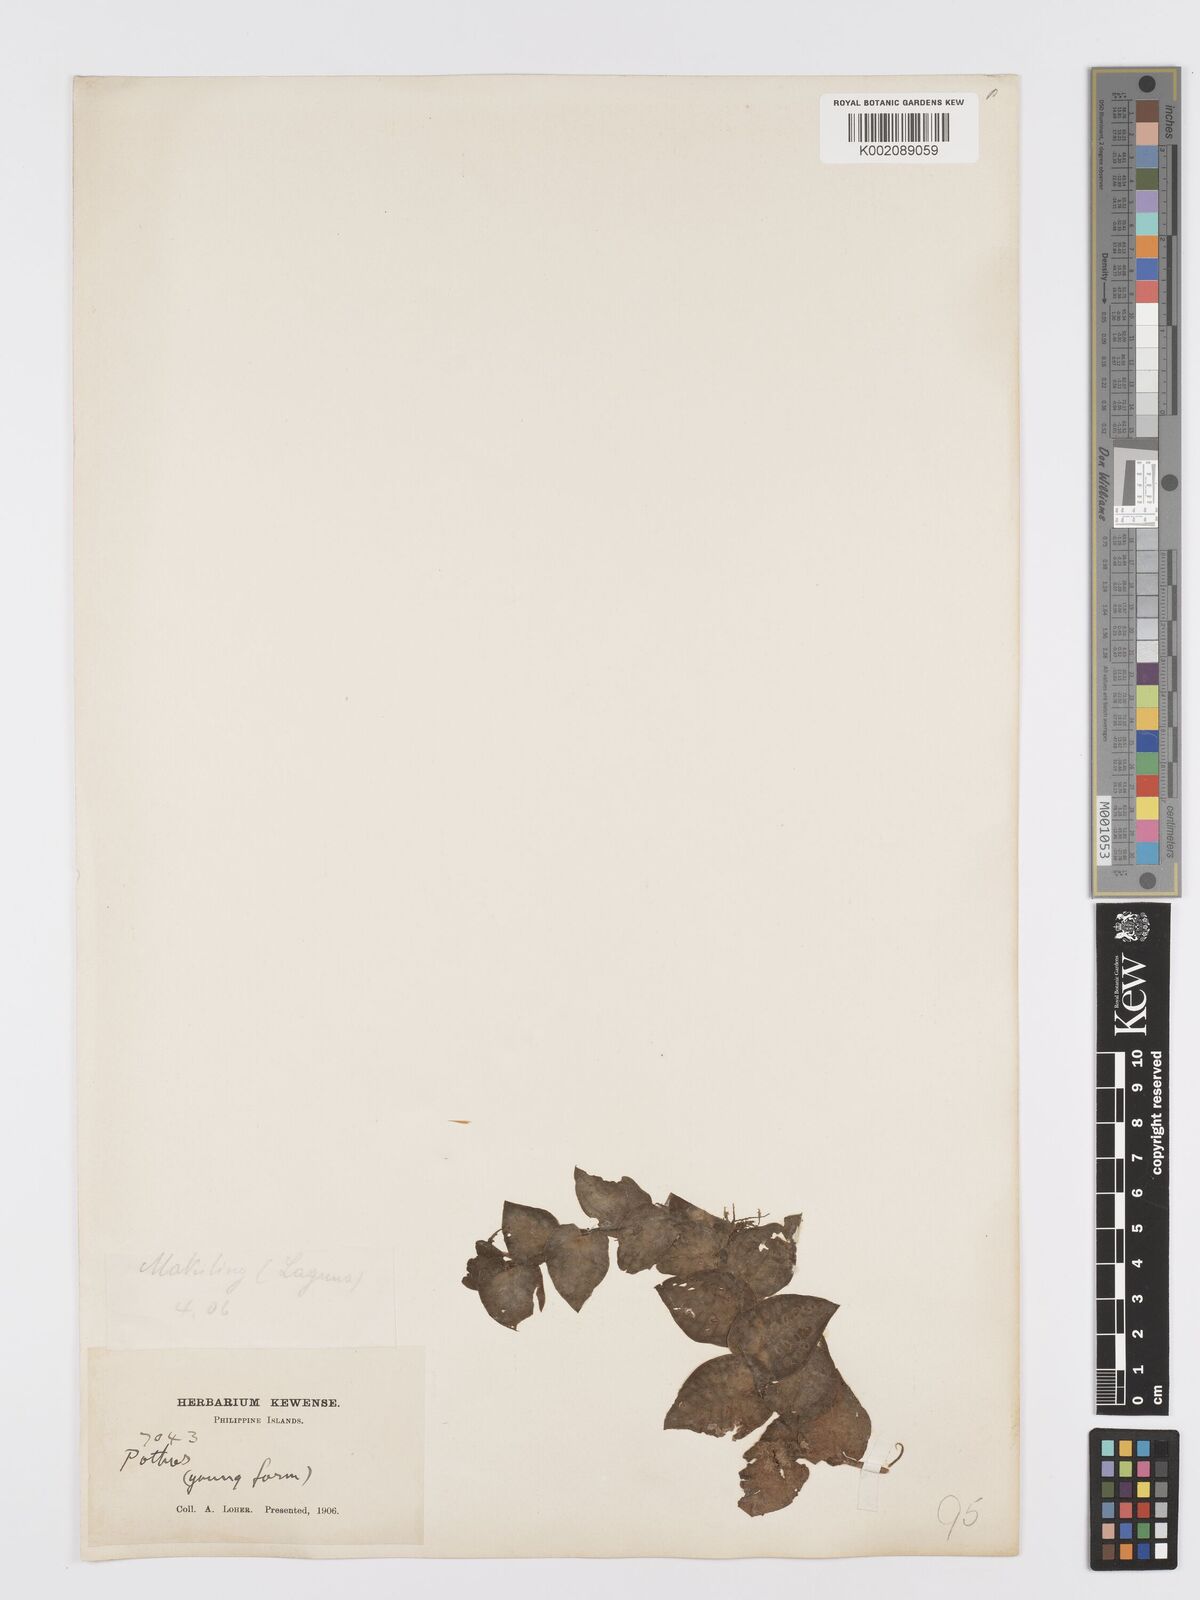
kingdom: Plantae
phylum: Tracheophyta
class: Liliopsida
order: Alismatales
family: Araceae
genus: Pothos
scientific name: Pothos
